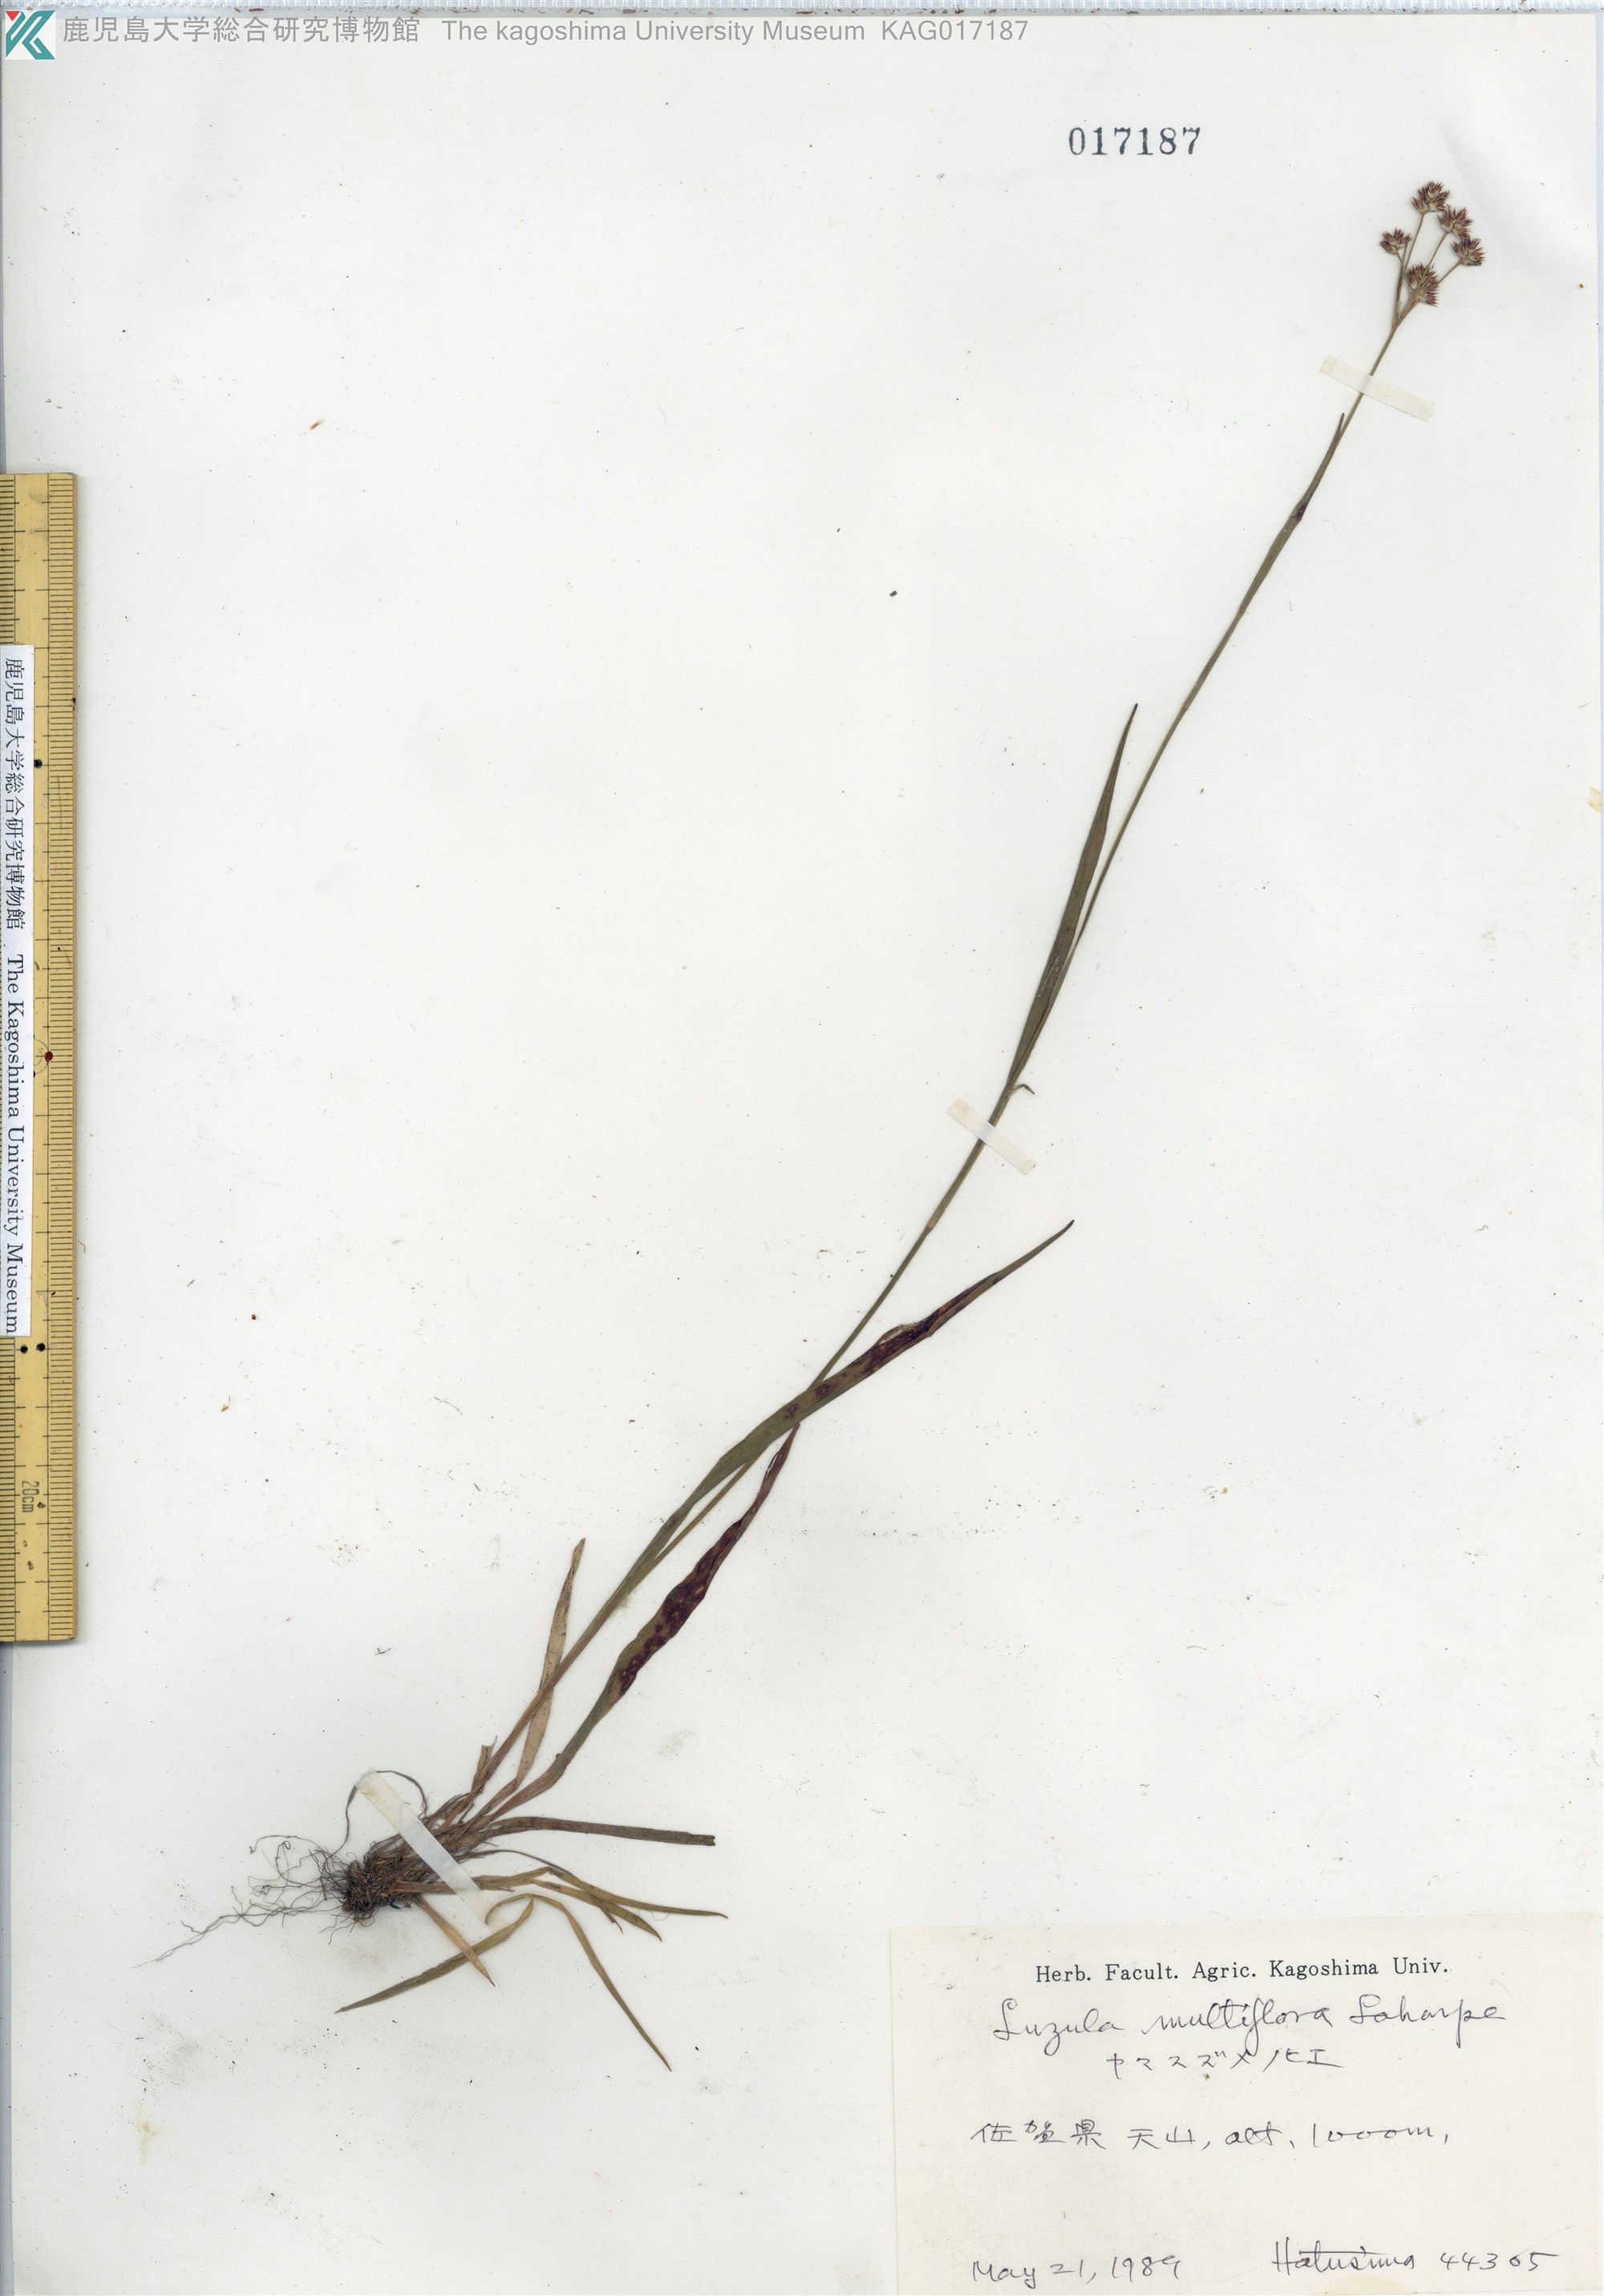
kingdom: Plantae
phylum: Tracheophyta
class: Liliopsida
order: Poales
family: Juncaceae
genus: Luzula
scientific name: Luzula multiflora
